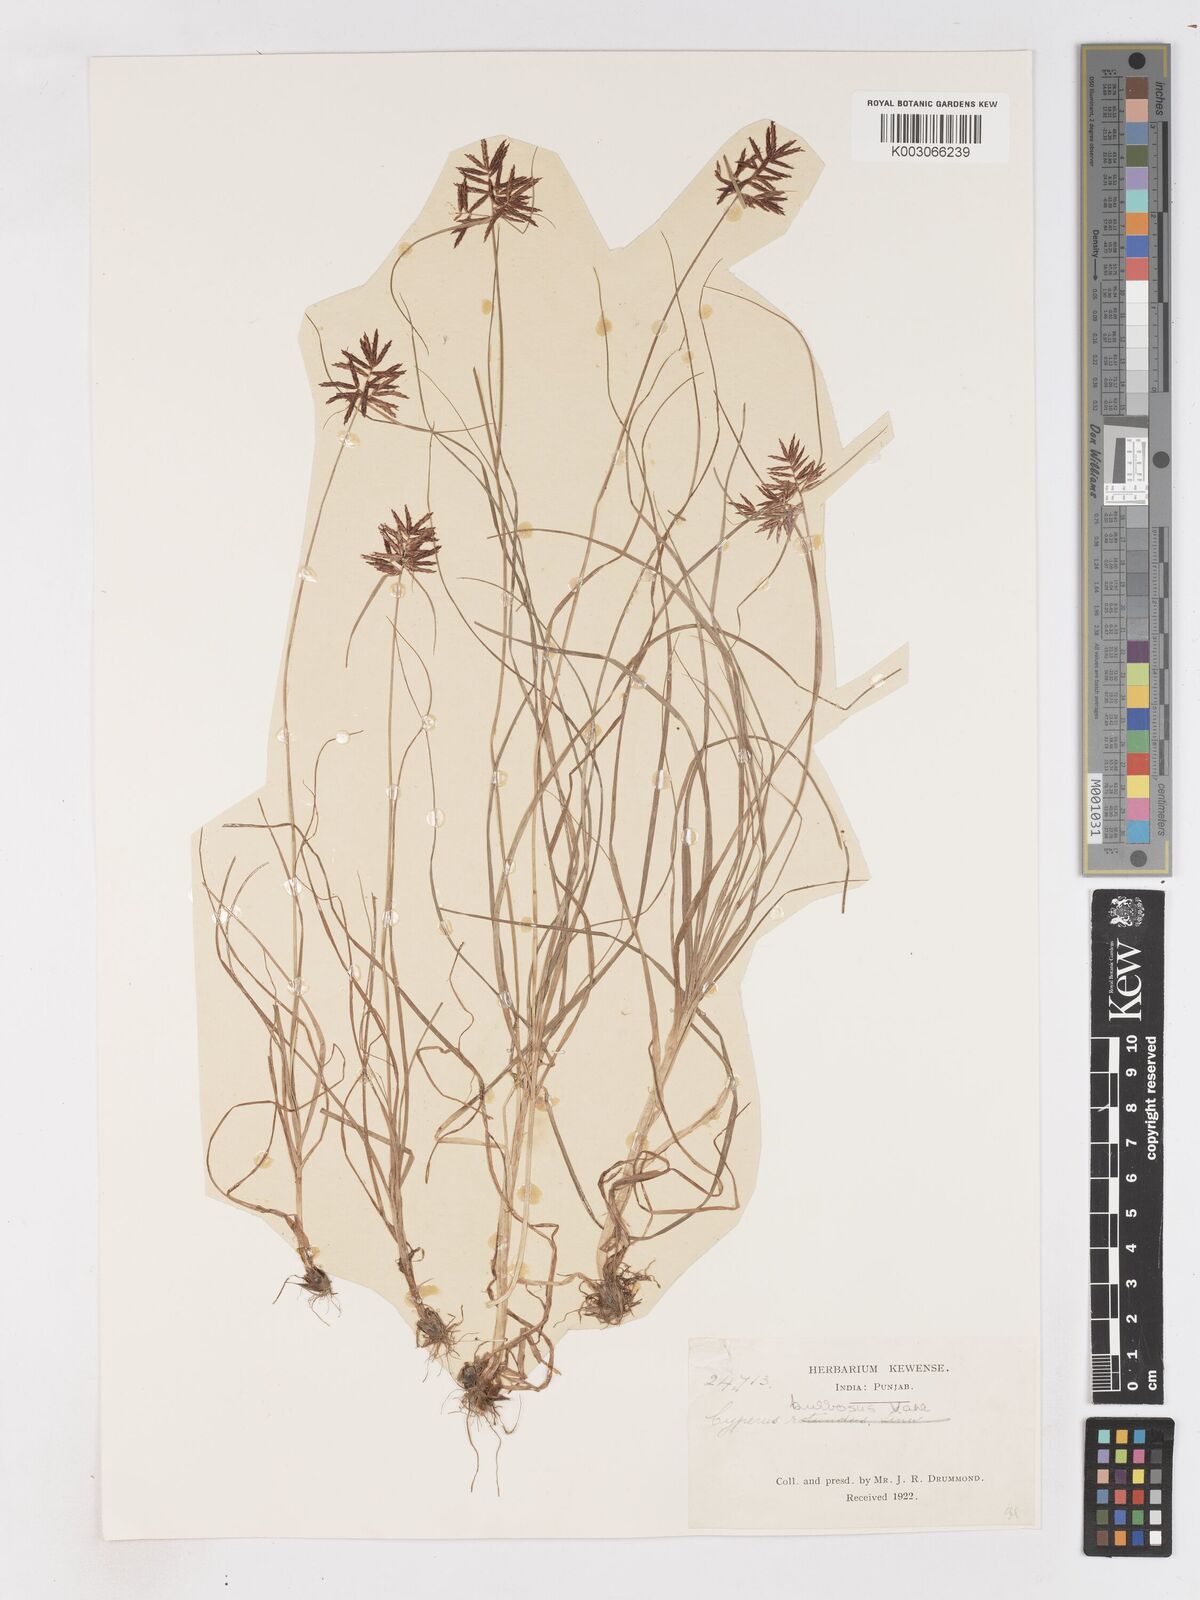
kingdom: Plantae
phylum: Tracheophyta
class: Liliopsida
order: Poales
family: Cyperaceae
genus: Cyperus
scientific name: Cyperus bulbosus
